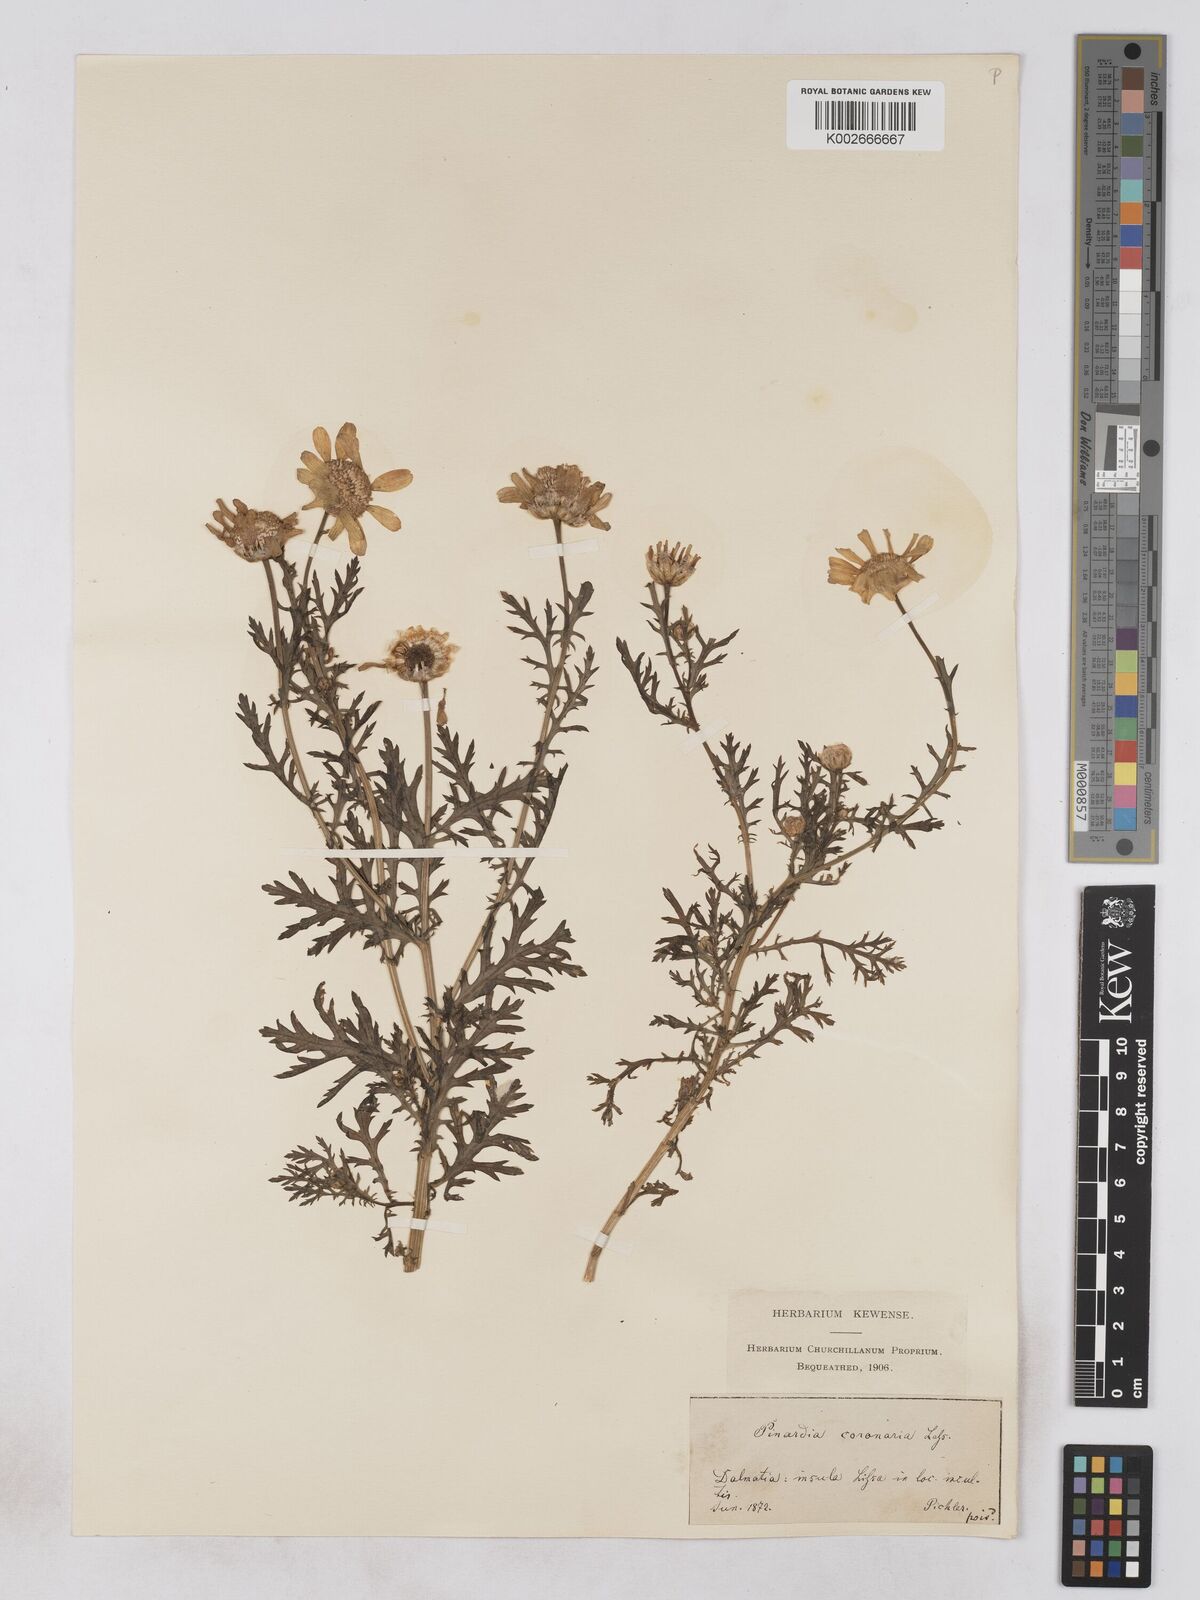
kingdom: Plantae
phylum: Tracheophyta
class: Magnoliopsida
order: Asterales
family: Asteraceae
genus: Glebionis
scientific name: Glebionis coronaria
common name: Crowndaisy
